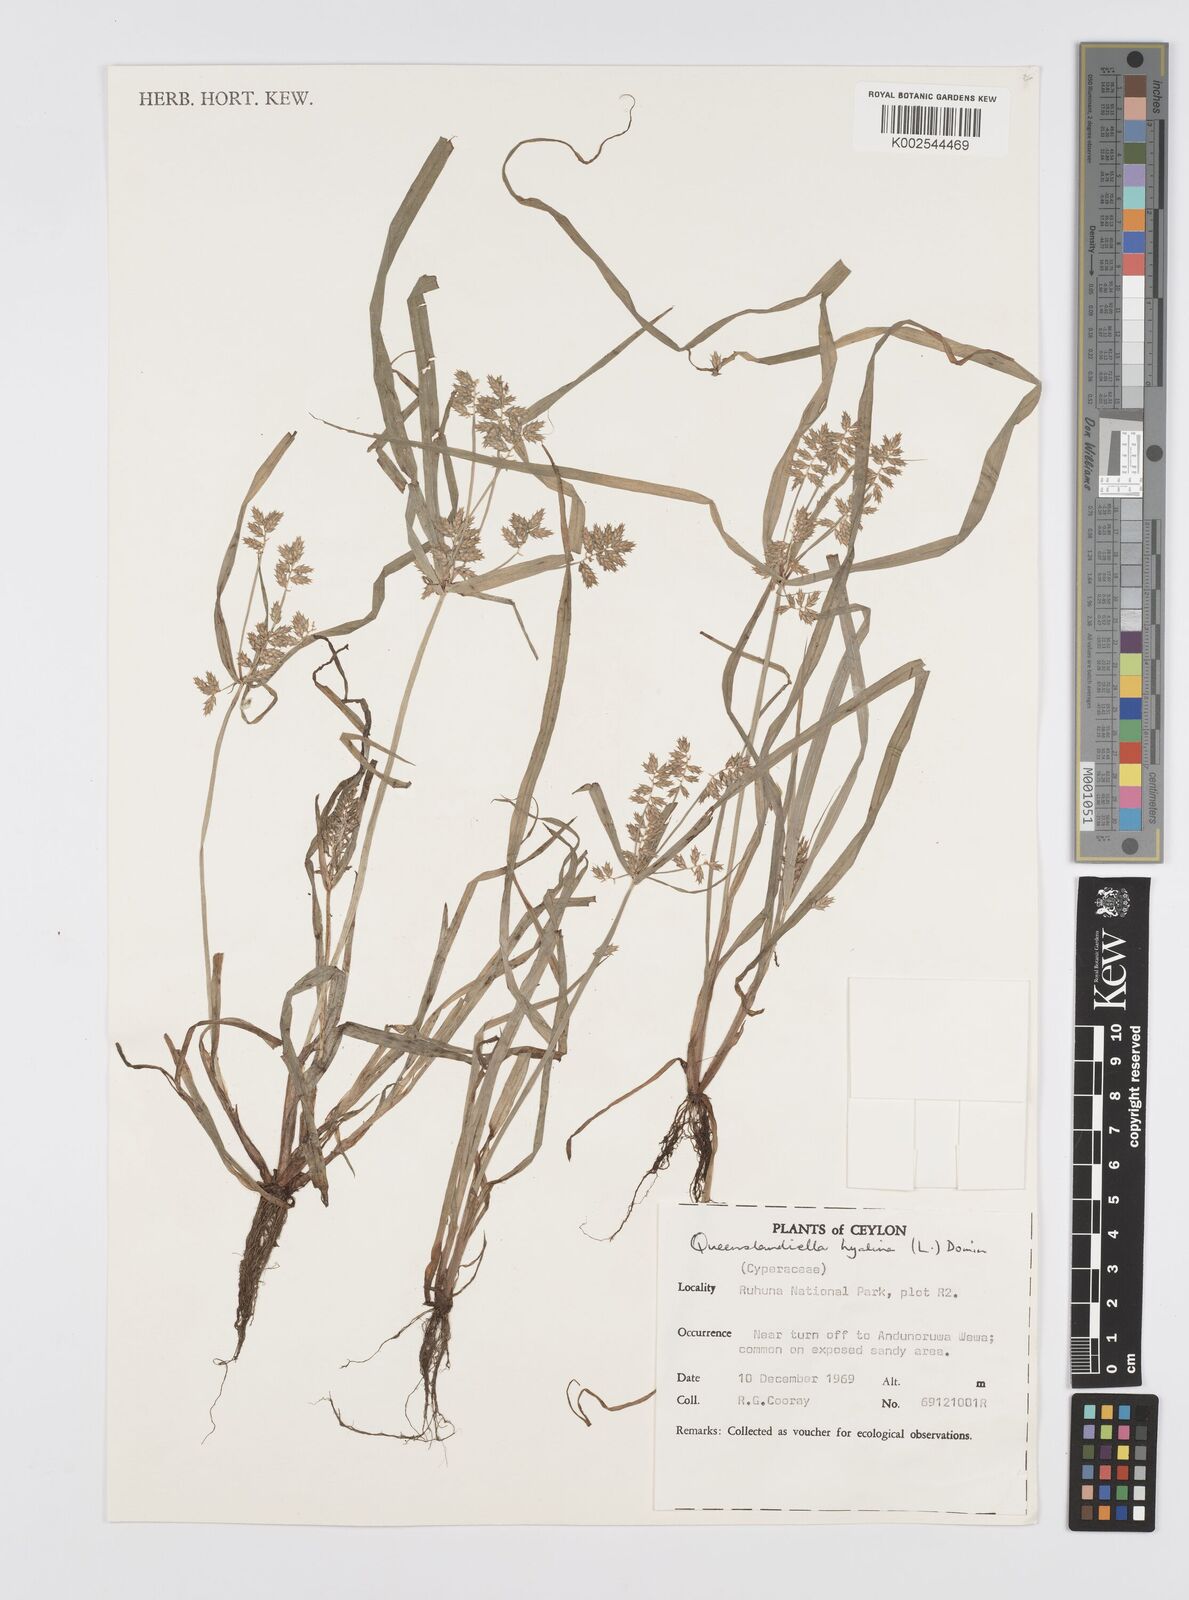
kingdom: Plantae
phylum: Tracheophyta
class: Liliopsida
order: Poales
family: Cyperaceae
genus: Cyperus
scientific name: Cyperus hyalinus
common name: Queensland sedge
